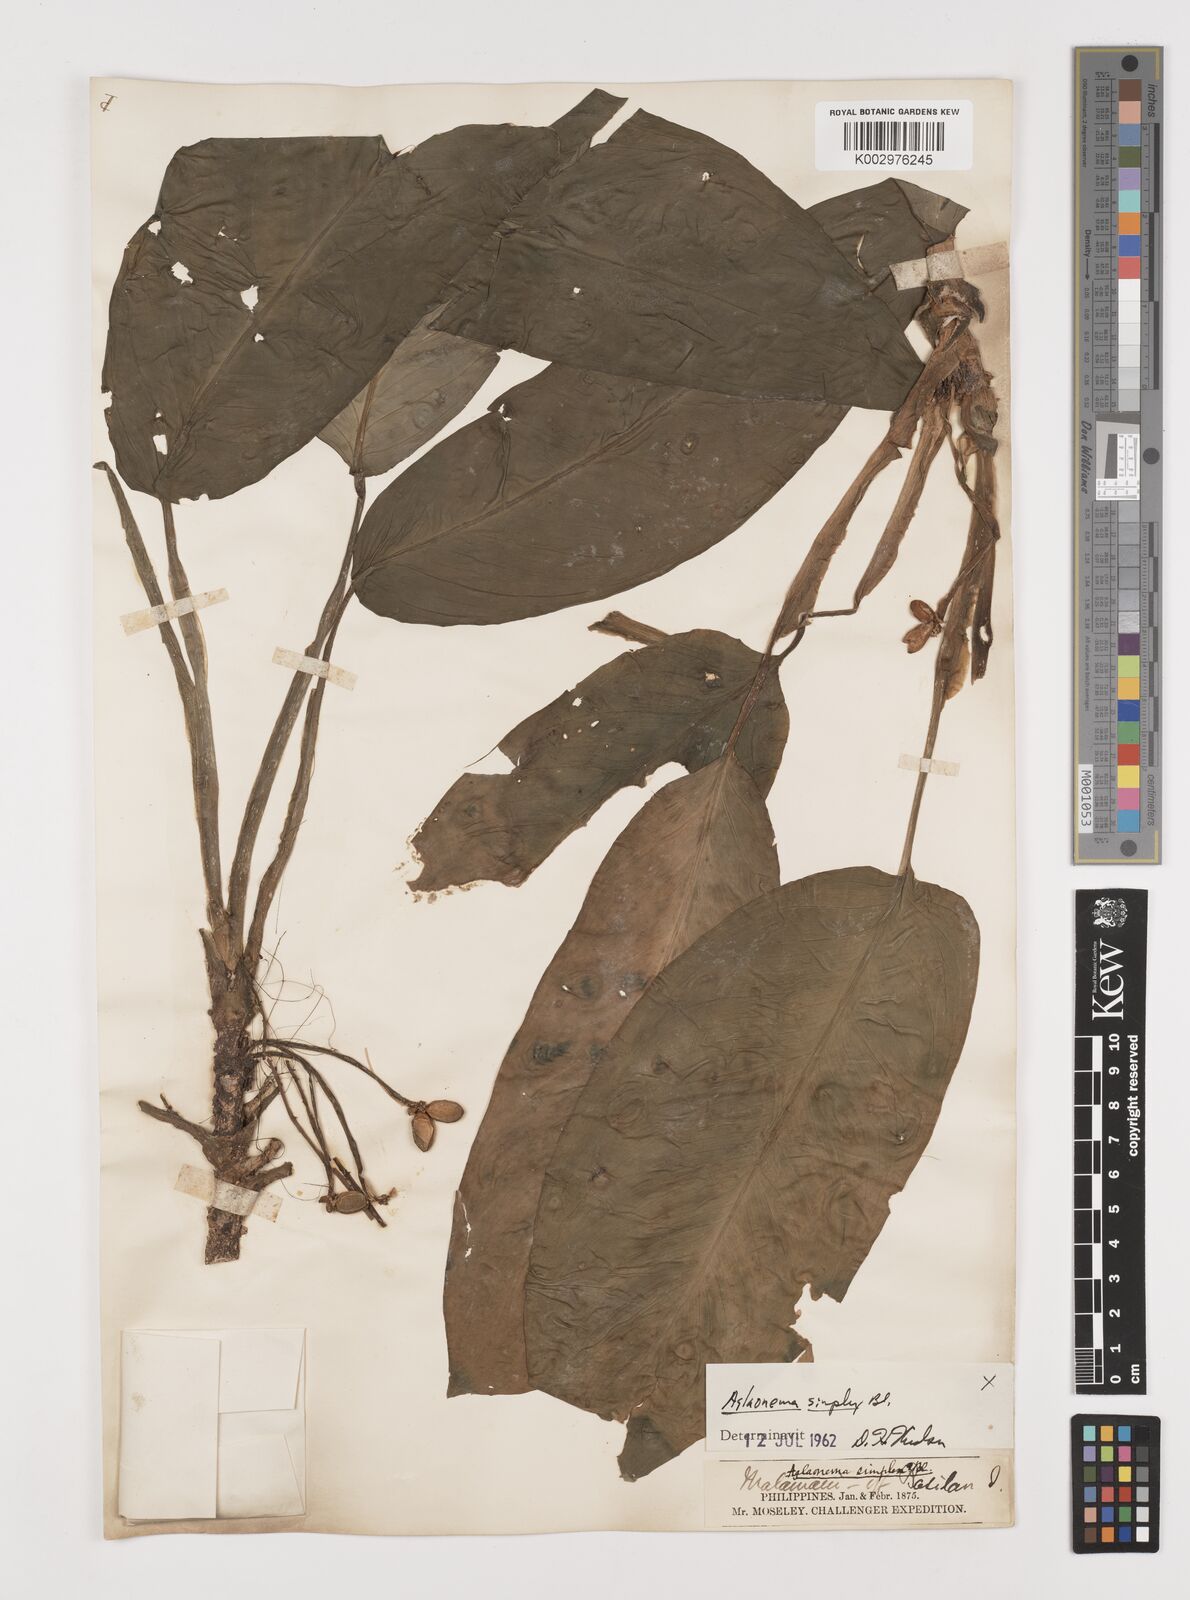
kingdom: Plantae
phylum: Tracheophyta
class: Liliopsida
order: Alismatales
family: Araceae
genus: Aglaonema
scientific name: Aglaonema simplex
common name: Malayan-sword
